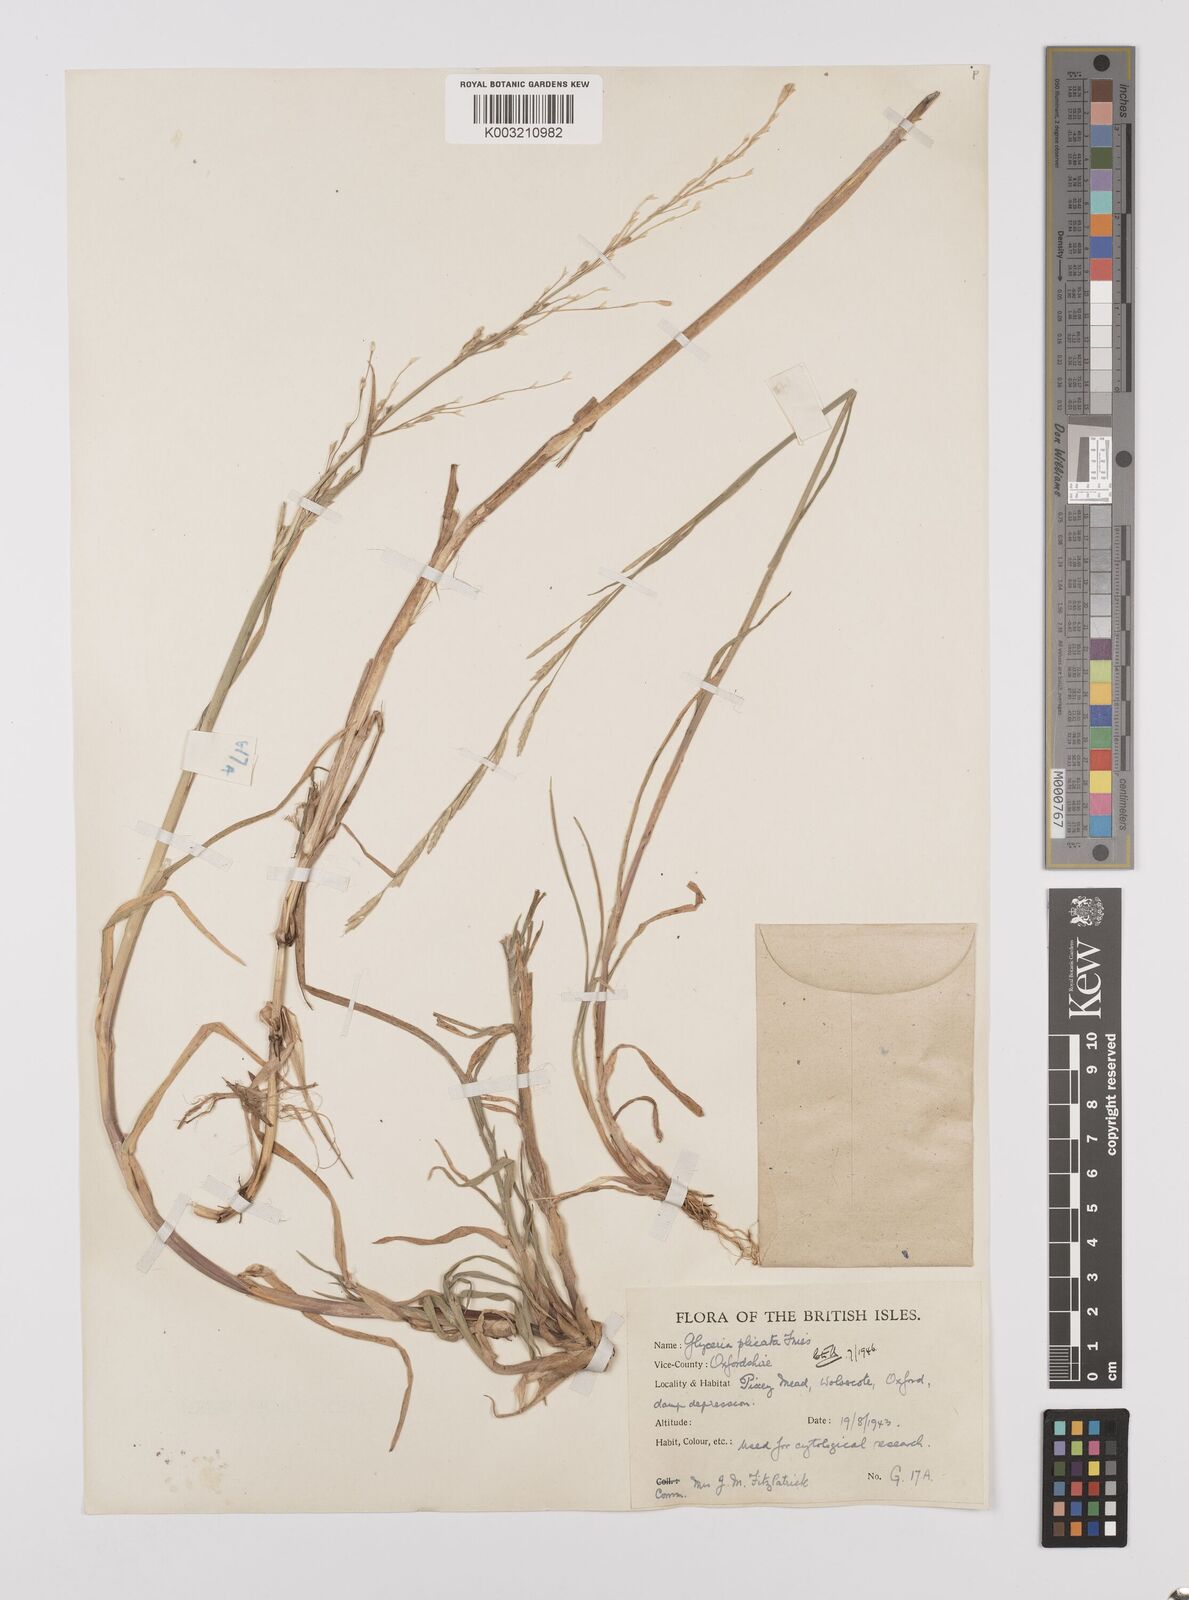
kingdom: Plantae
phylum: Tracheophyta
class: Liliopsida
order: Poales
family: Poaceae
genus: Glyceria
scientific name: Glyceria notata
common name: Plicate sweet-grass
